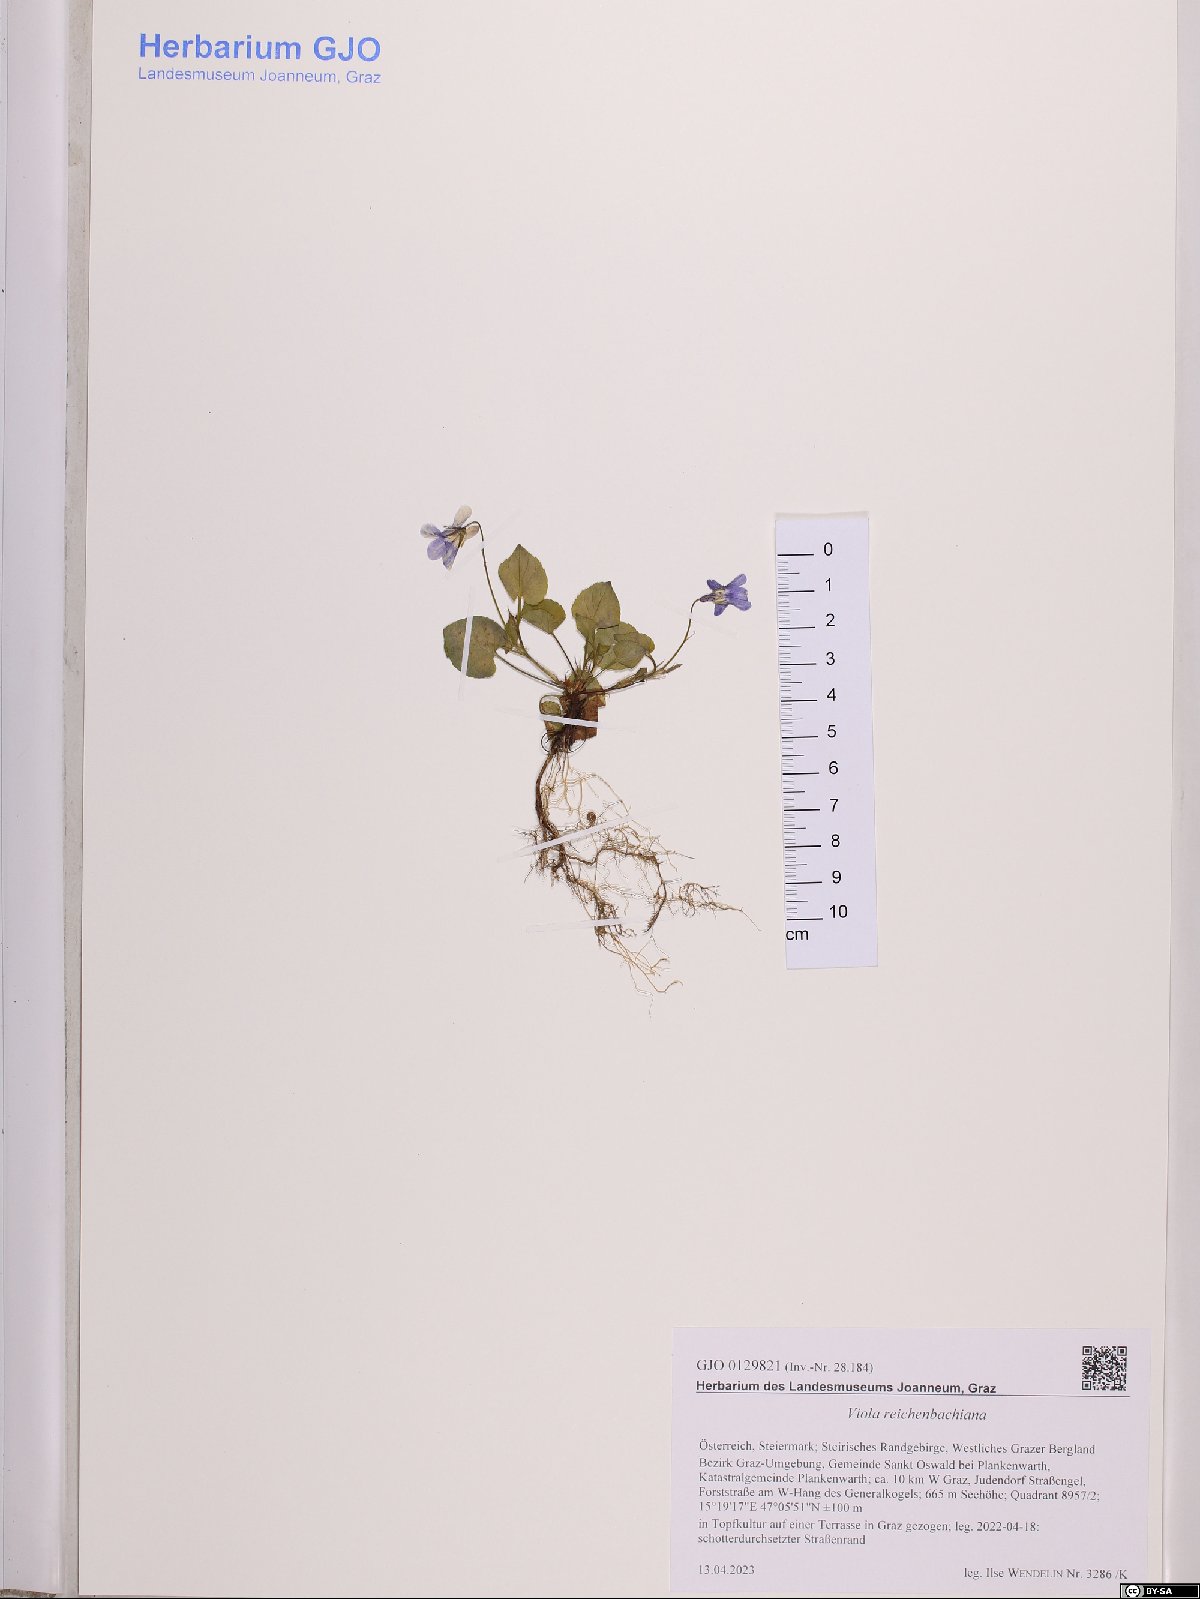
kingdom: Plantae
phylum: Tracheophyta
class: Magnoliopsida
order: Malpighiales
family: Violaceae
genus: Viola
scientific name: Viola reichenbachiana
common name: Early dog-violet
